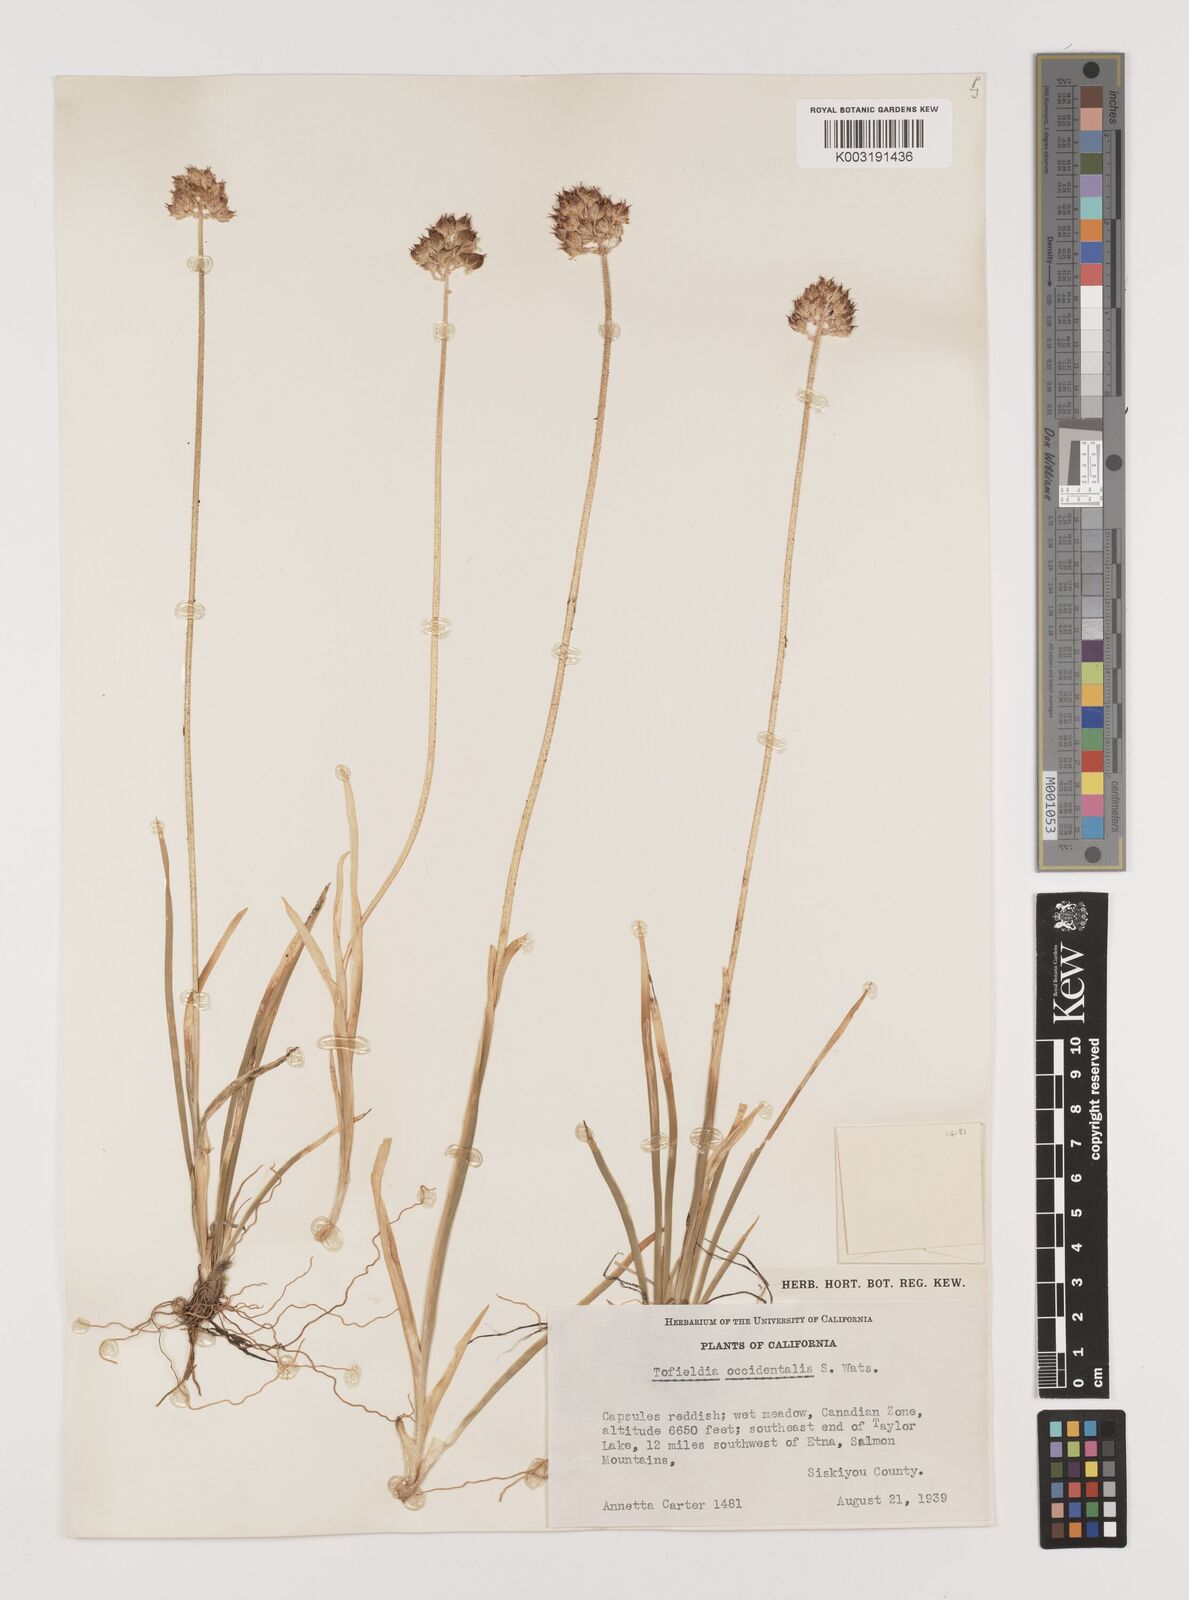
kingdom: Plantae
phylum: Tracheophyta
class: Liliopsida
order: Alismatales
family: Tofieldiaceae
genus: Triantha
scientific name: Triantha occidentalis
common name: Western false asphodel
